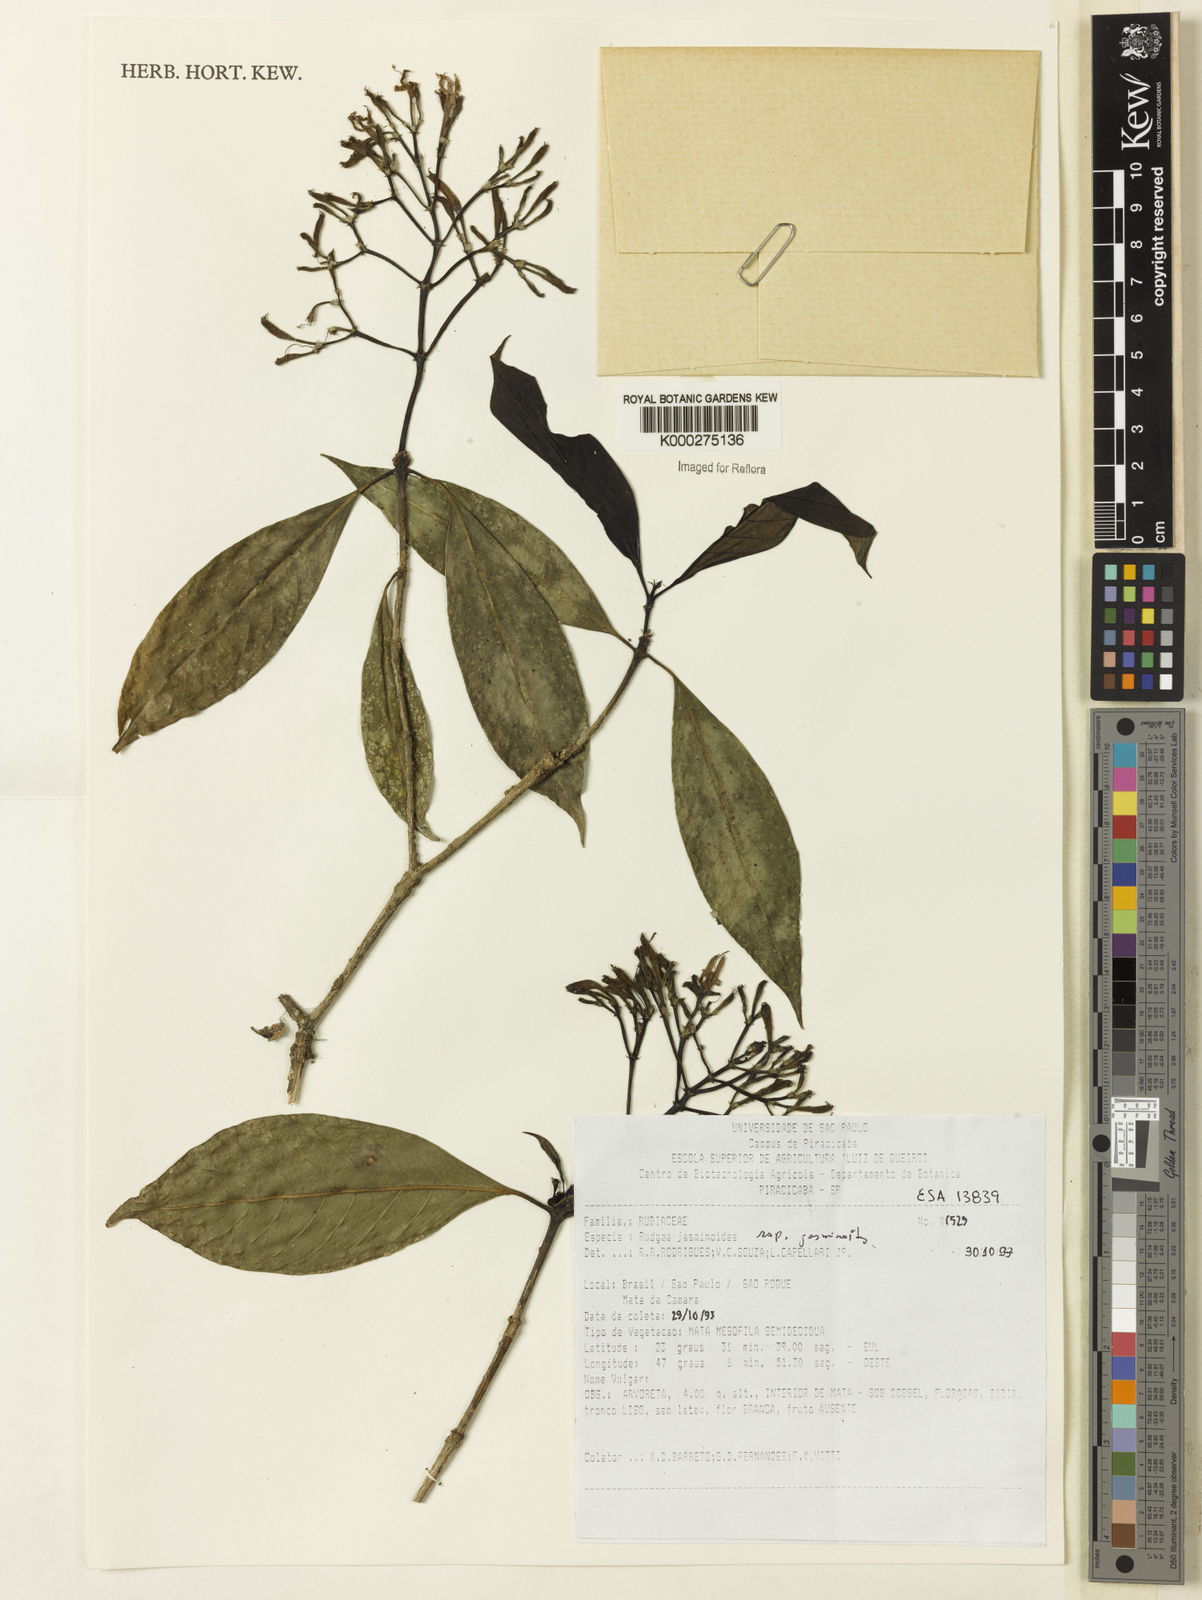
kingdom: Plantae
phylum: Tracheophyta
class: Magnoliopsida
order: Gentianales
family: Rubiaceae
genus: Rudgea
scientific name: Rudgea jasminoides
